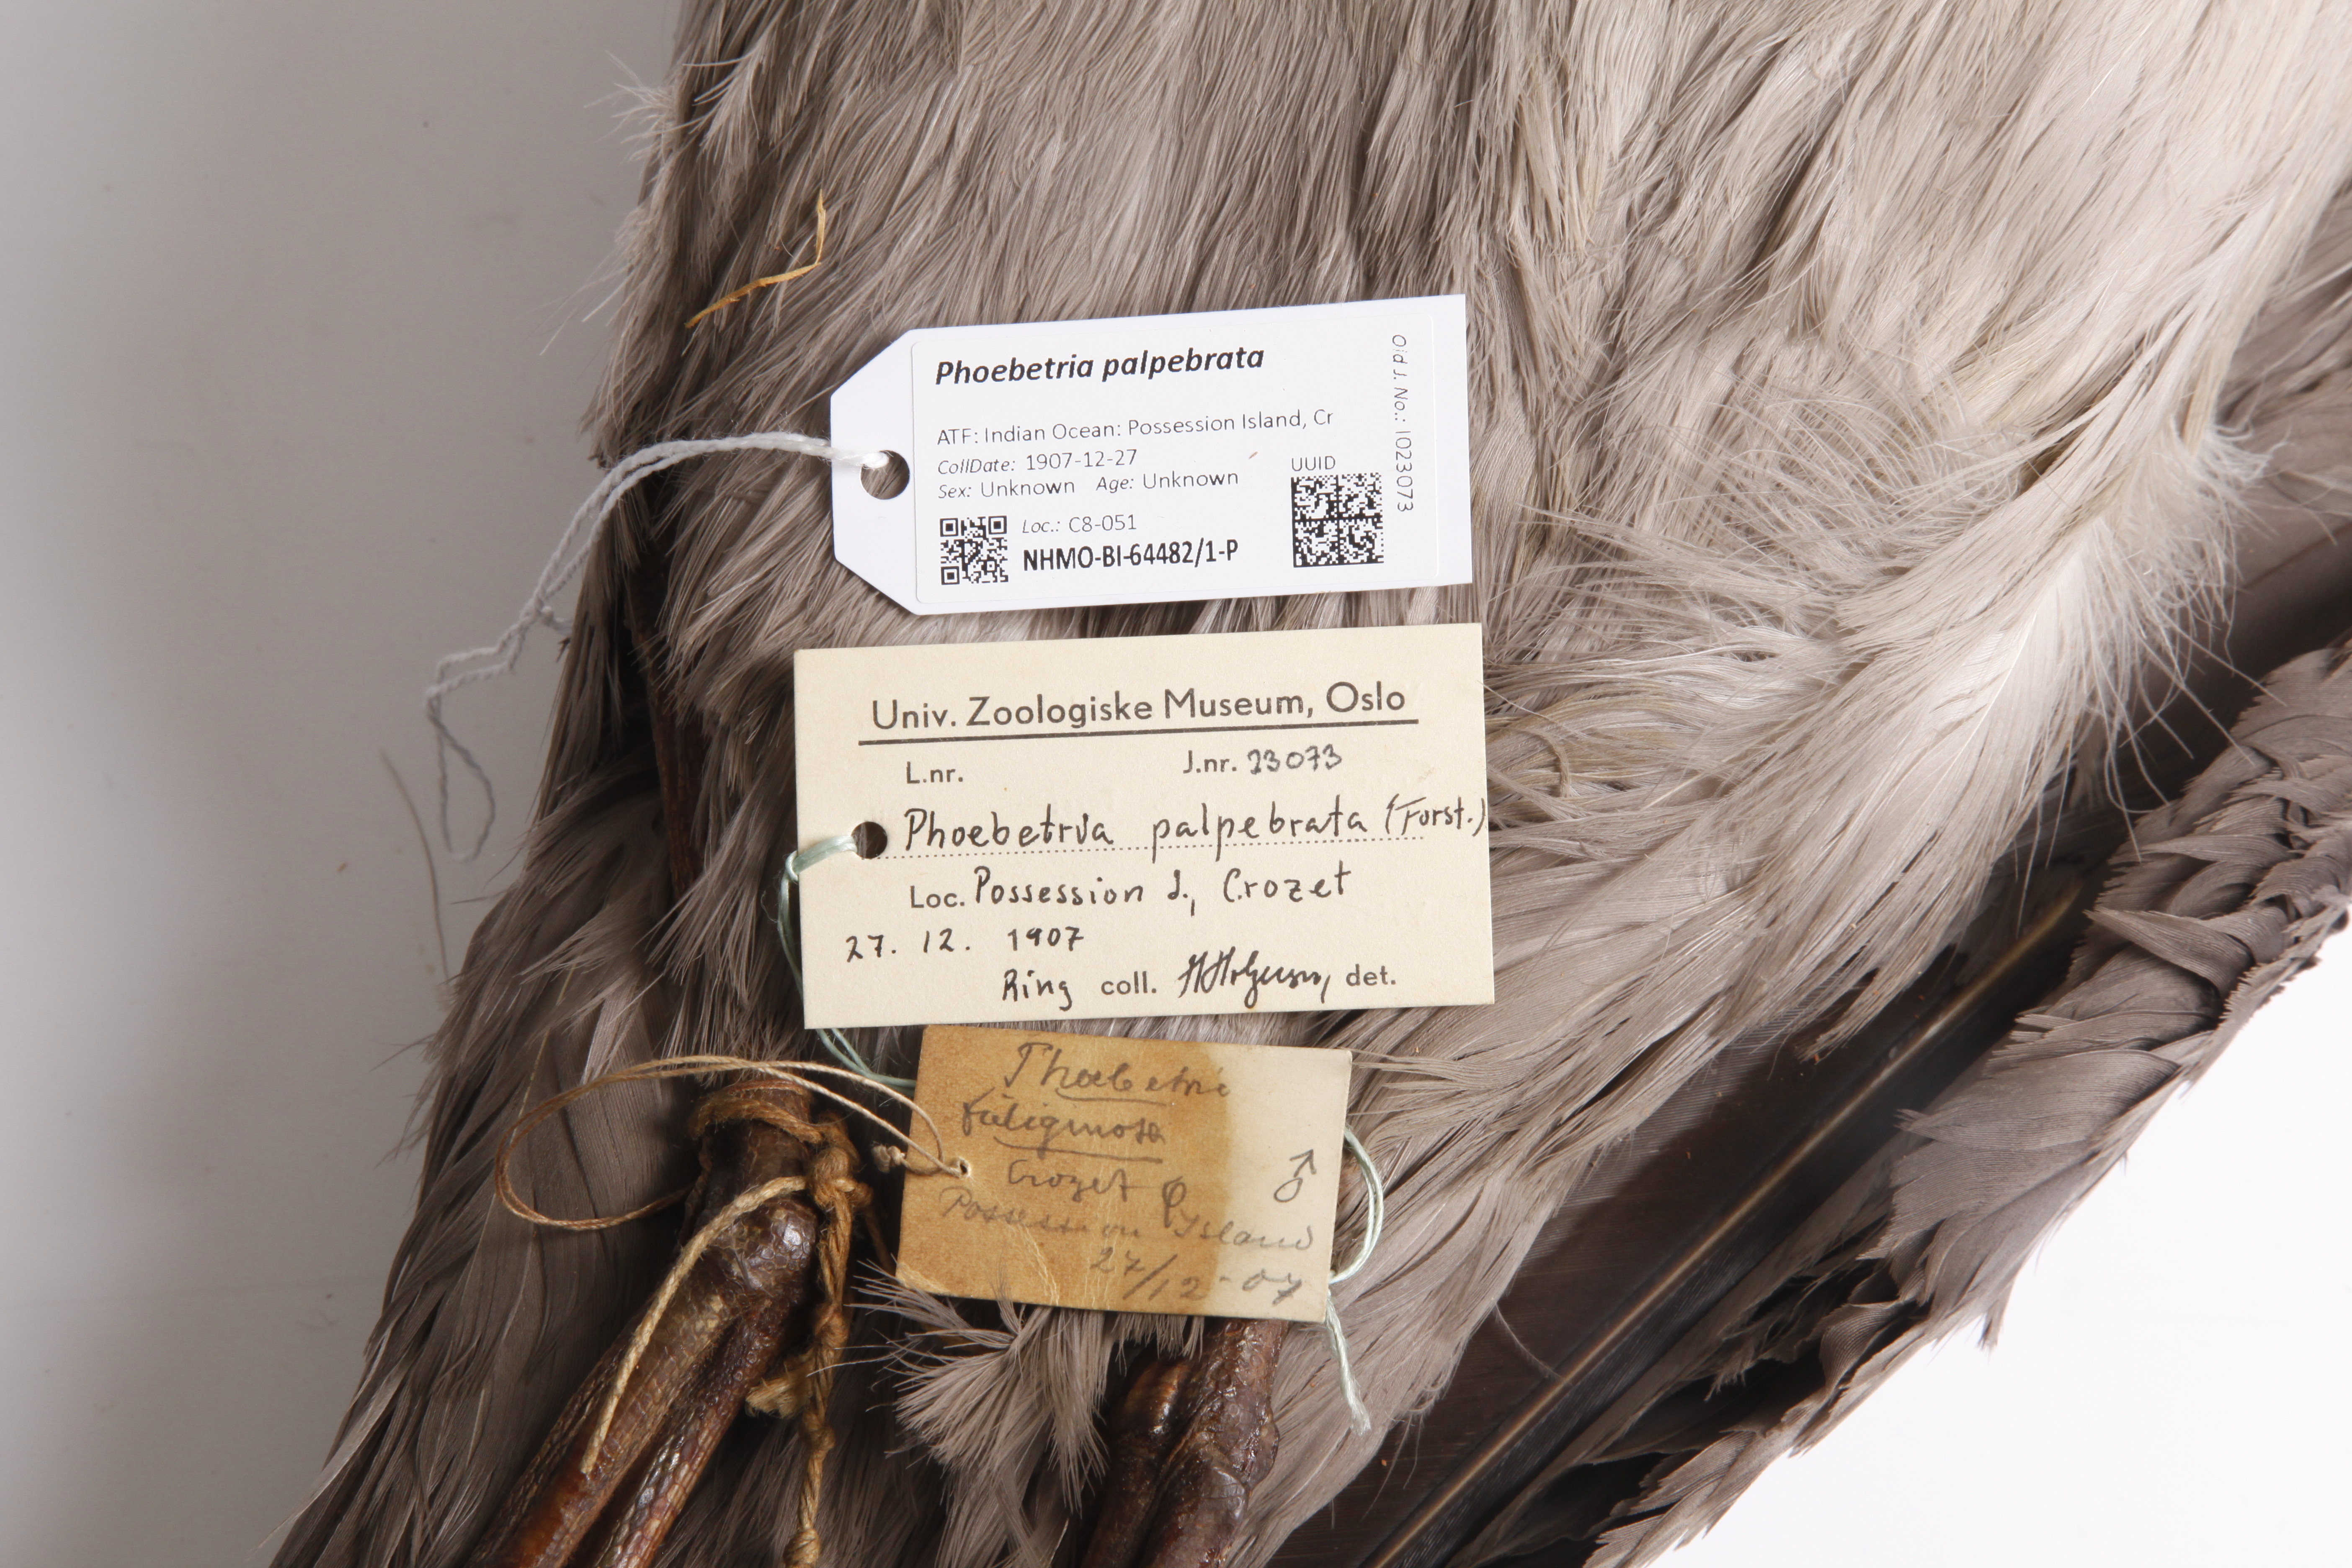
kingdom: Animalia
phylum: Chordata
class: Aves
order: Procellariiformes
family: Diomedeidae
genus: Phoebetria
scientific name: Phoebetria palpebrata
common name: Light-mantled albatross
